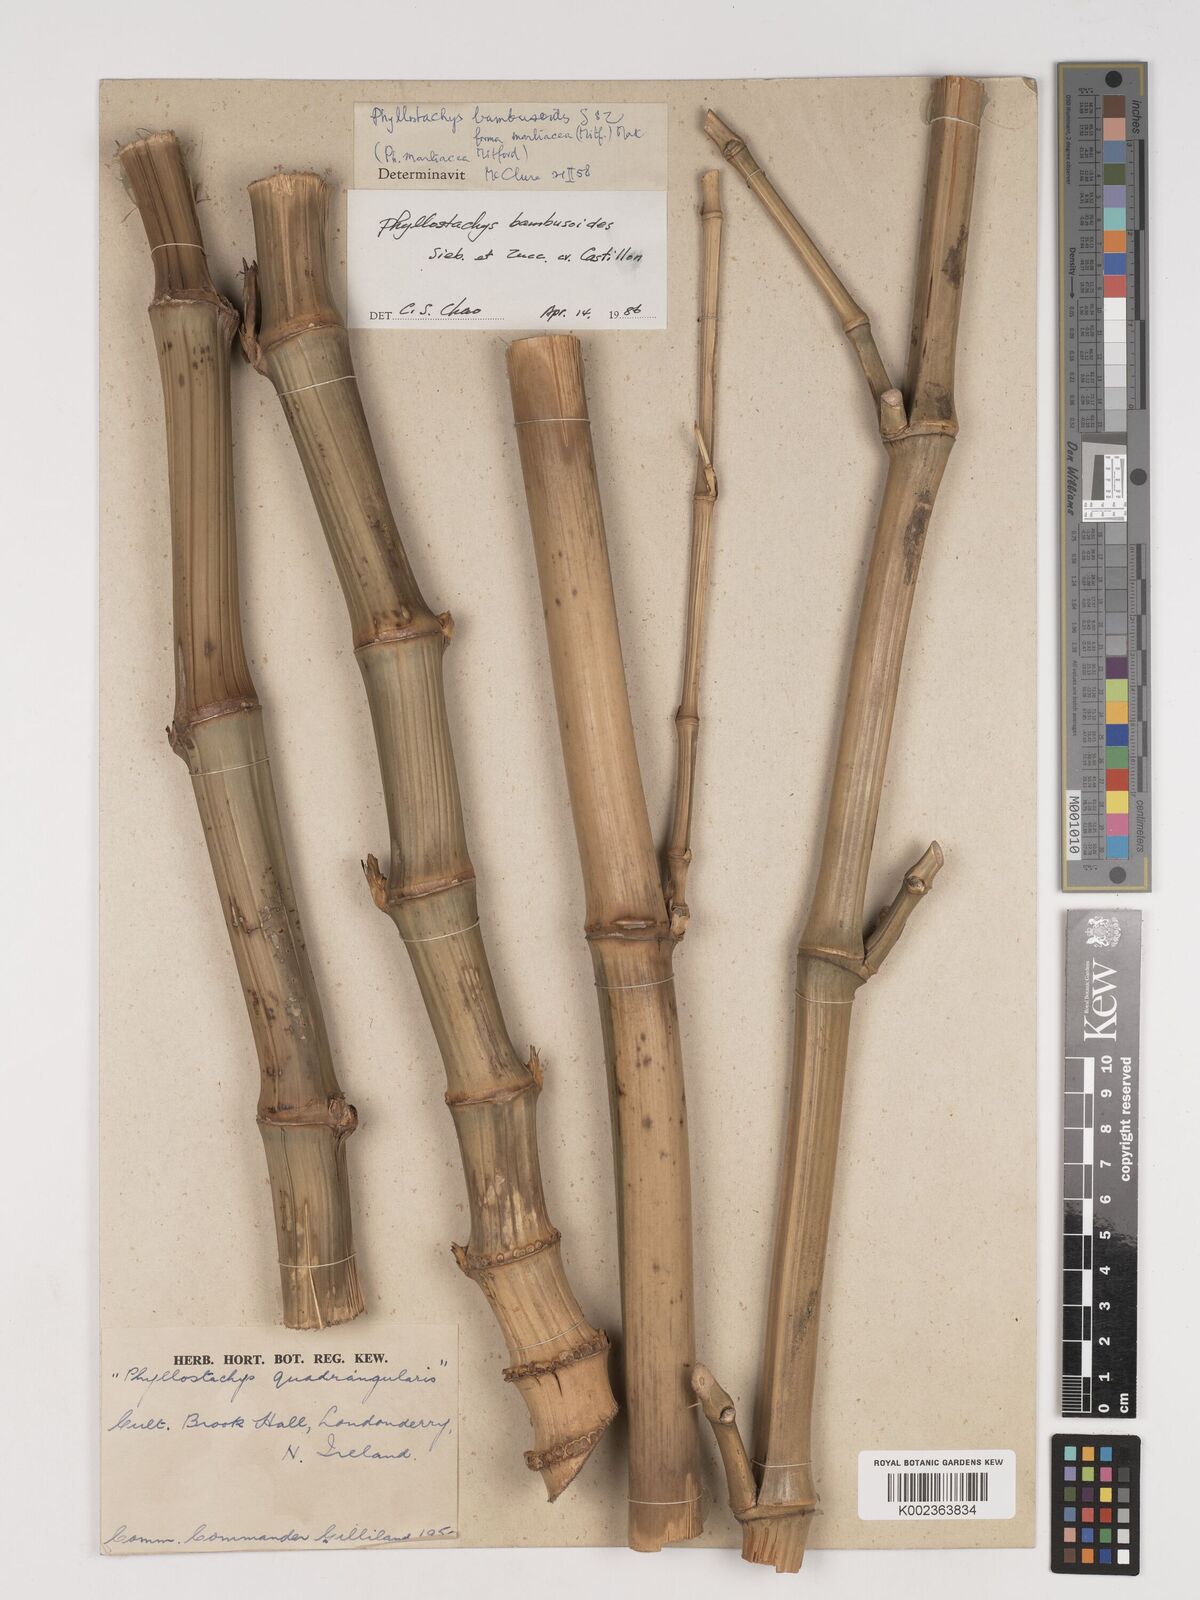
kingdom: Plantae
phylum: Tracheophyta
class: Liliopsida
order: Poales
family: Poaceae
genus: Phyllostachys
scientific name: Phyllostachys reticulata
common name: Bamboo
